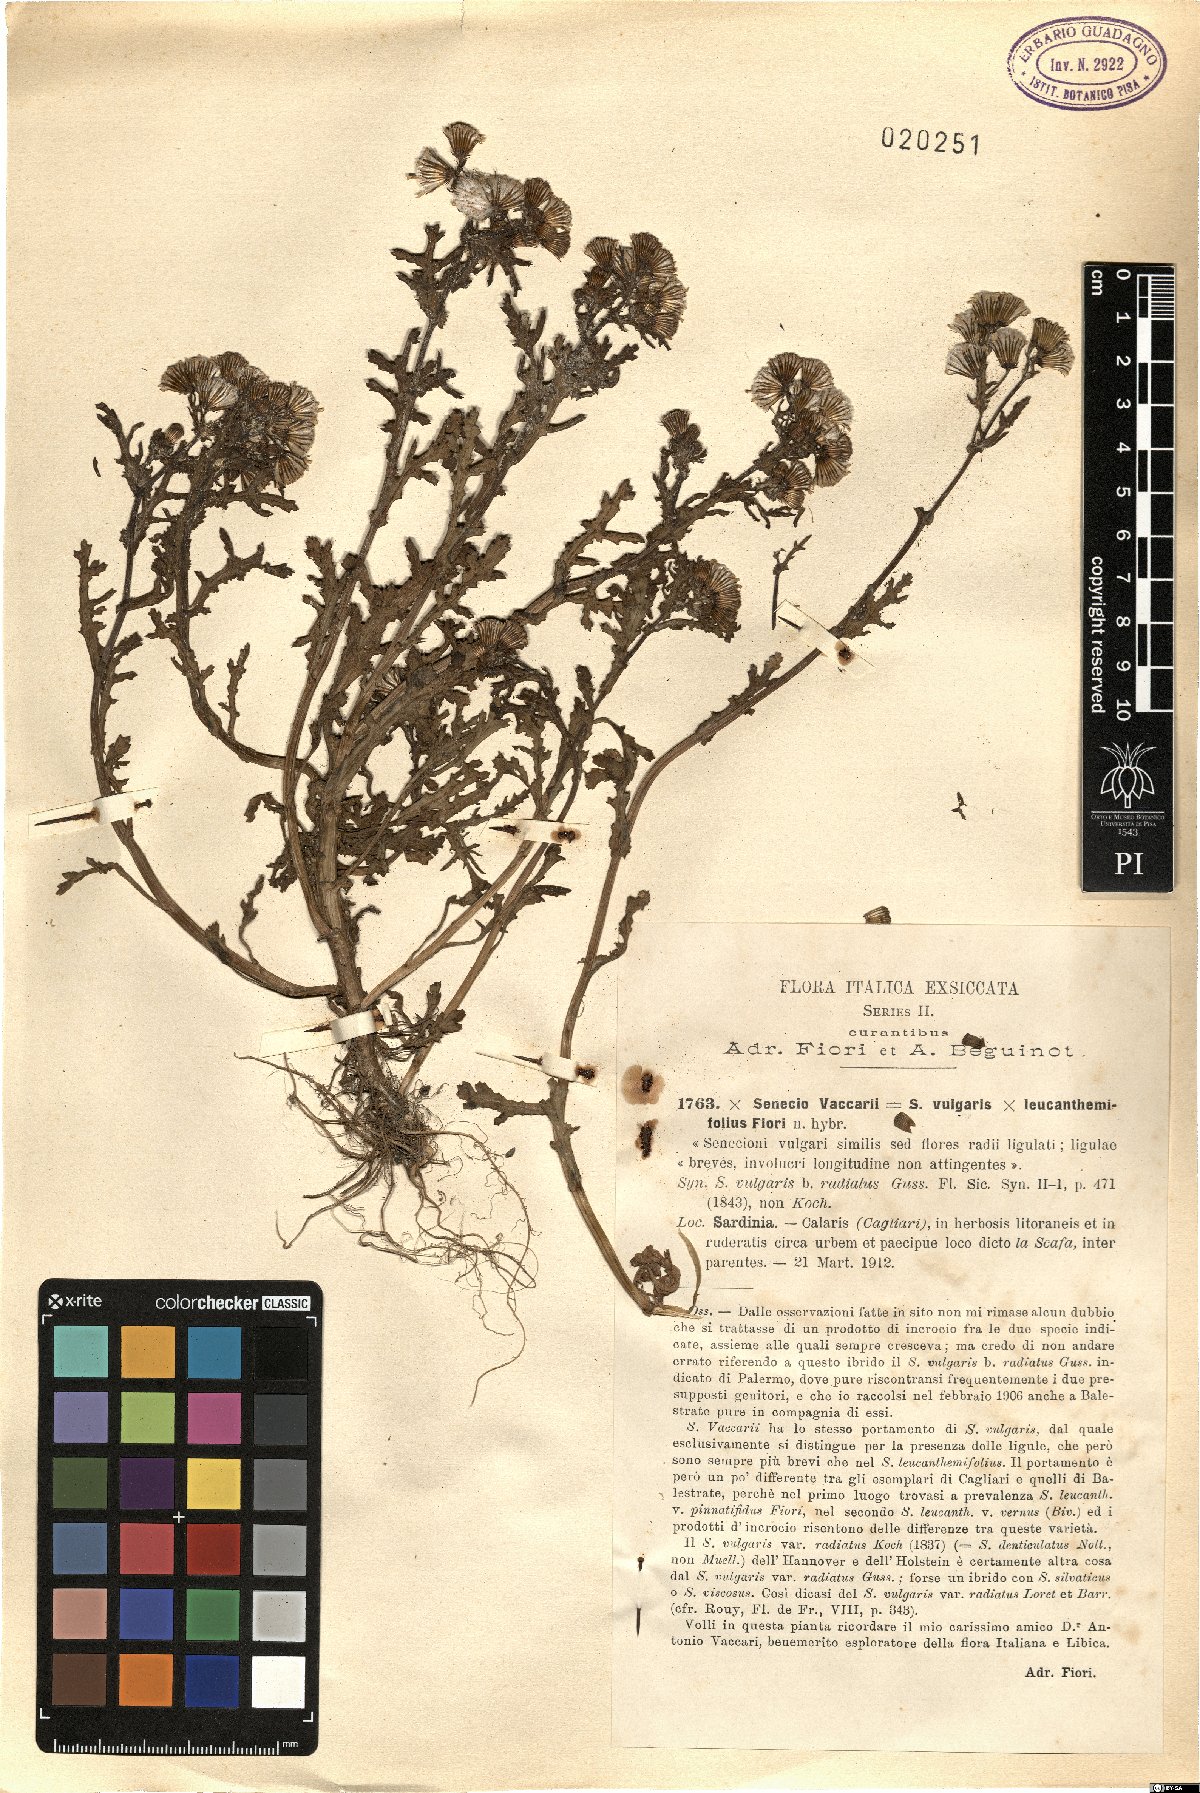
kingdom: Plantae
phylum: Tracheophyta
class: Magnoliopsida
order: Asterales
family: Asteraceae
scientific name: Asteraceae
